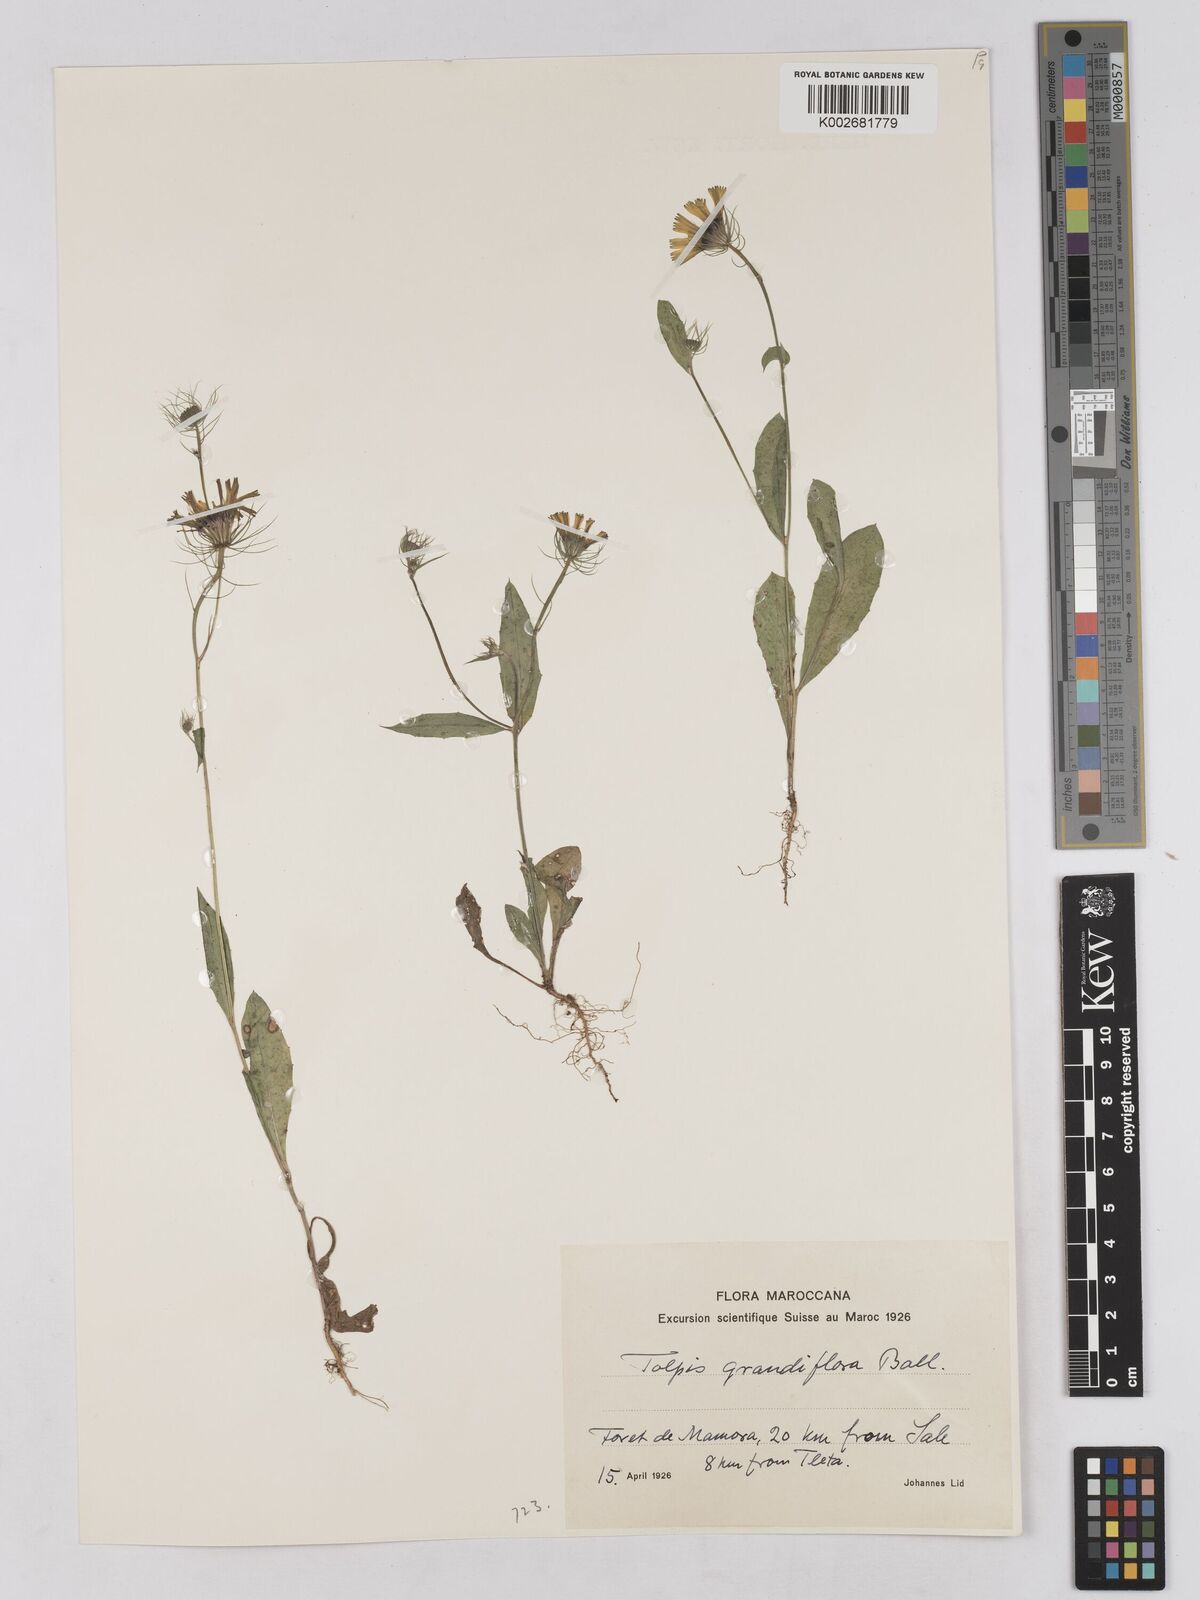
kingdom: Plantae
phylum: Tracheophyta
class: Magnoliopsida
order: Asterales
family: Asteraceae
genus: Tolpis
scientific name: Tolpis virgata
